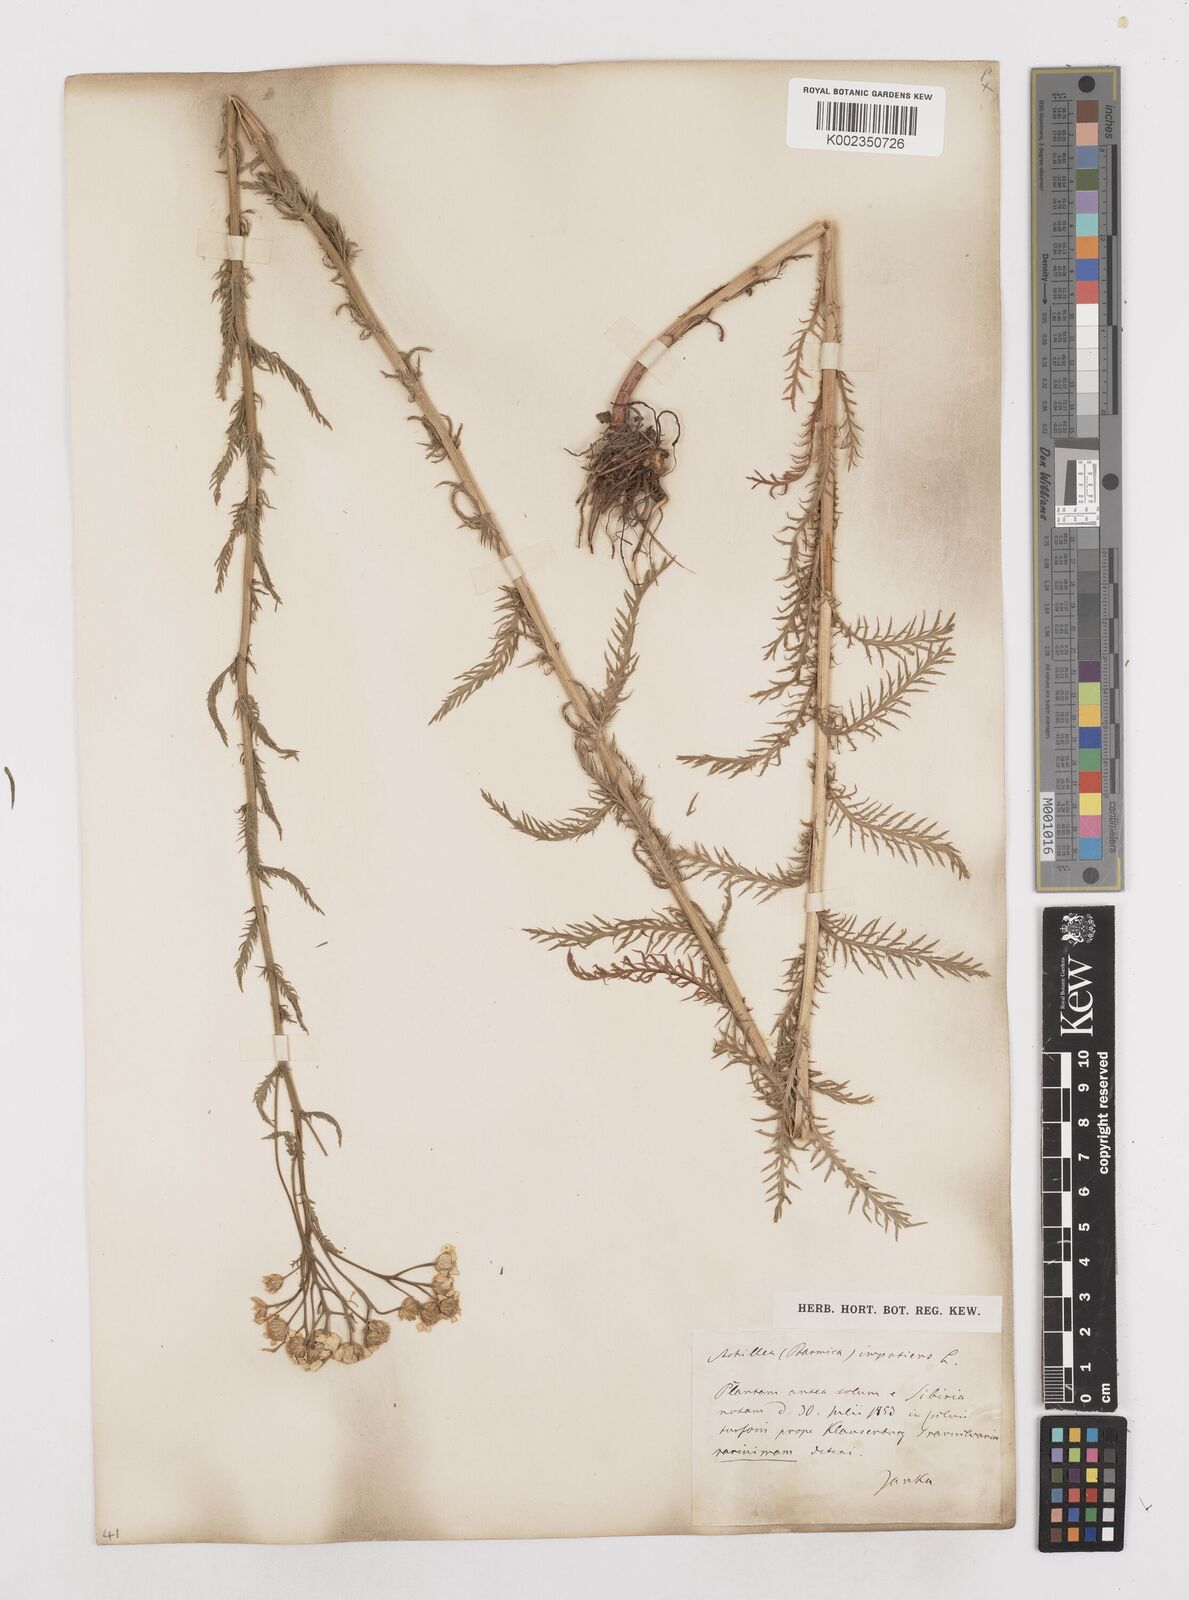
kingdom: Plantae
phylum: Tracheophyta
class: Magnoliopsida
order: Asterales
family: Asteraceae
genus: Achillea
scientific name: Achillea impatiens
